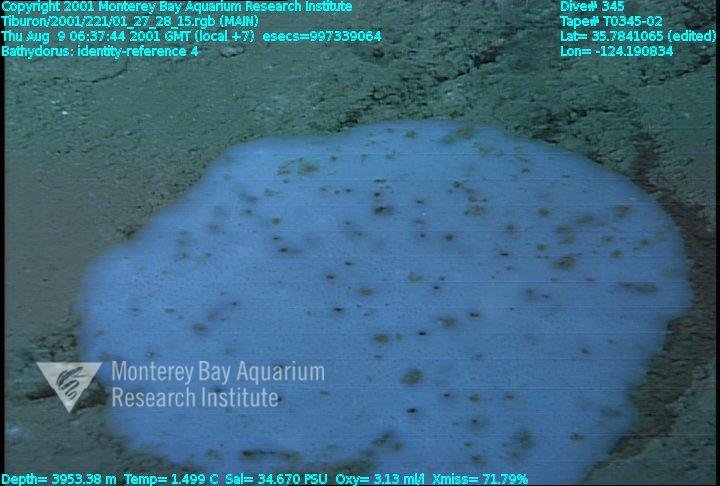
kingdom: Animalia
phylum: Porifera
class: Hexactinellida
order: Lyssacinosida
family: Rossellidae
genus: Bathydorus
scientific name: Bathydorus
